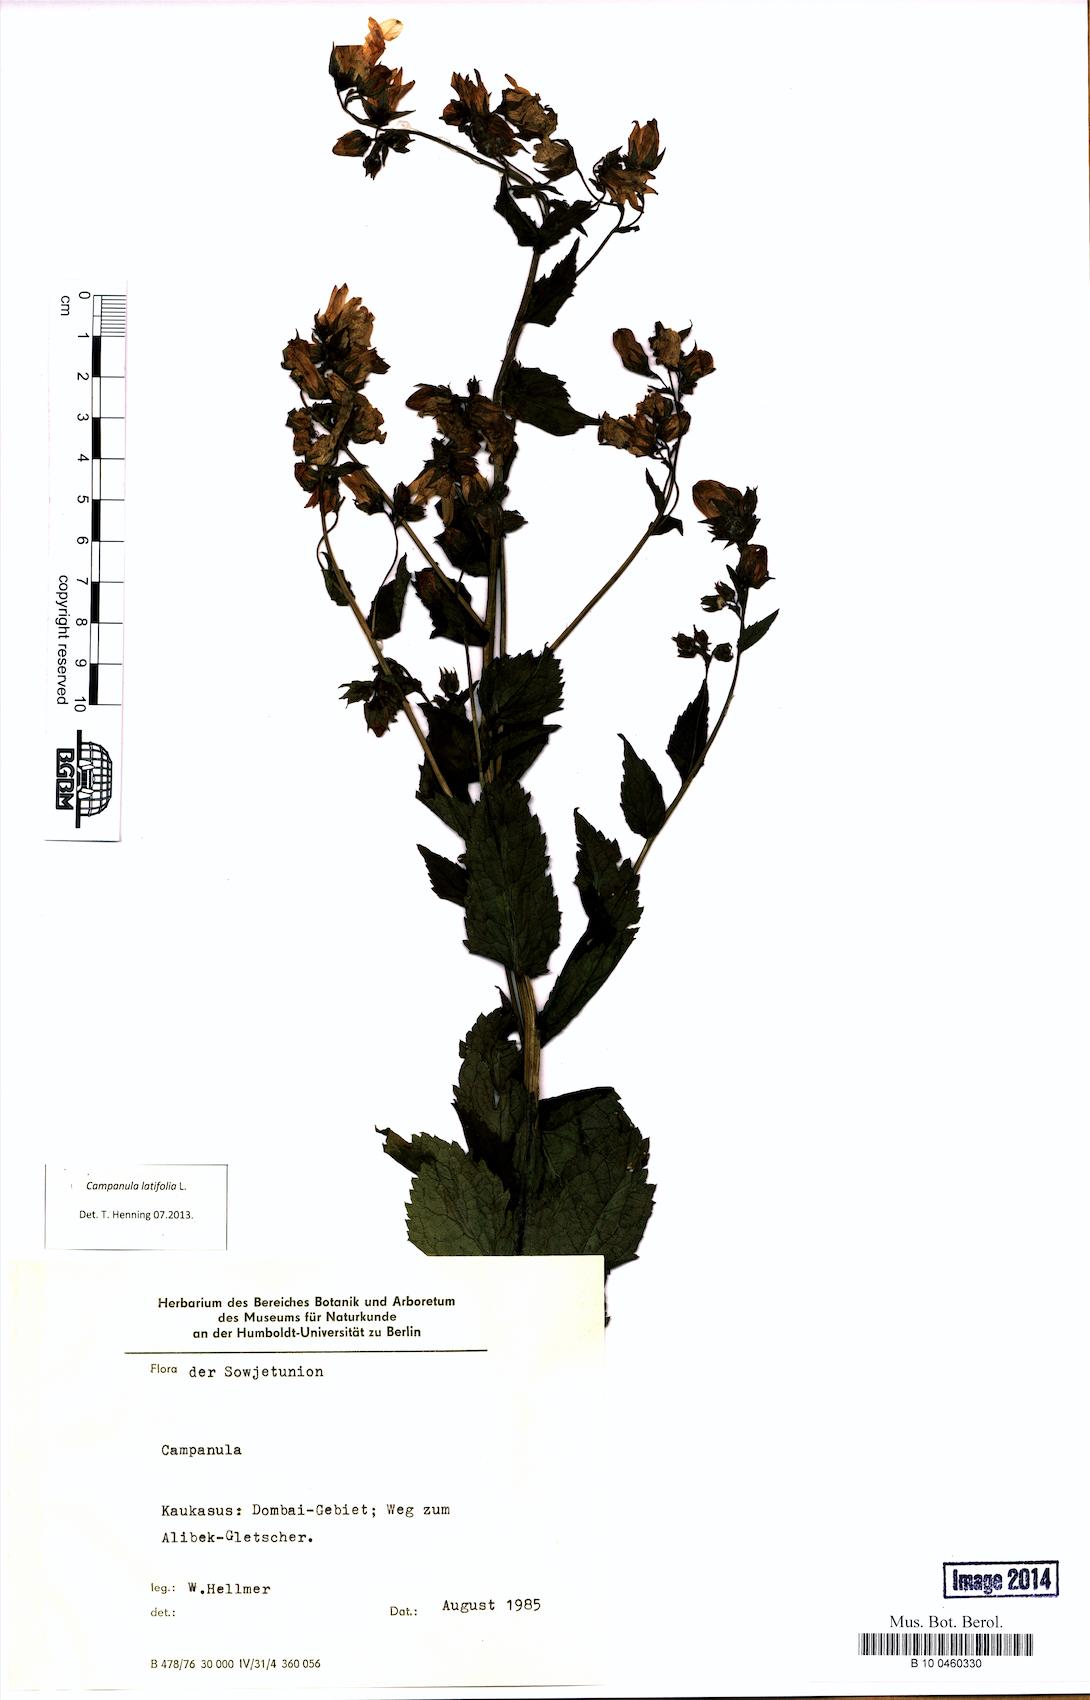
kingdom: Plantae
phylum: Tracheophyta
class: Magnoliopsida
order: Asterales
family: Campanulaceae
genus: Campanula
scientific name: Campanula latifolia
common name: Giant bellflower
